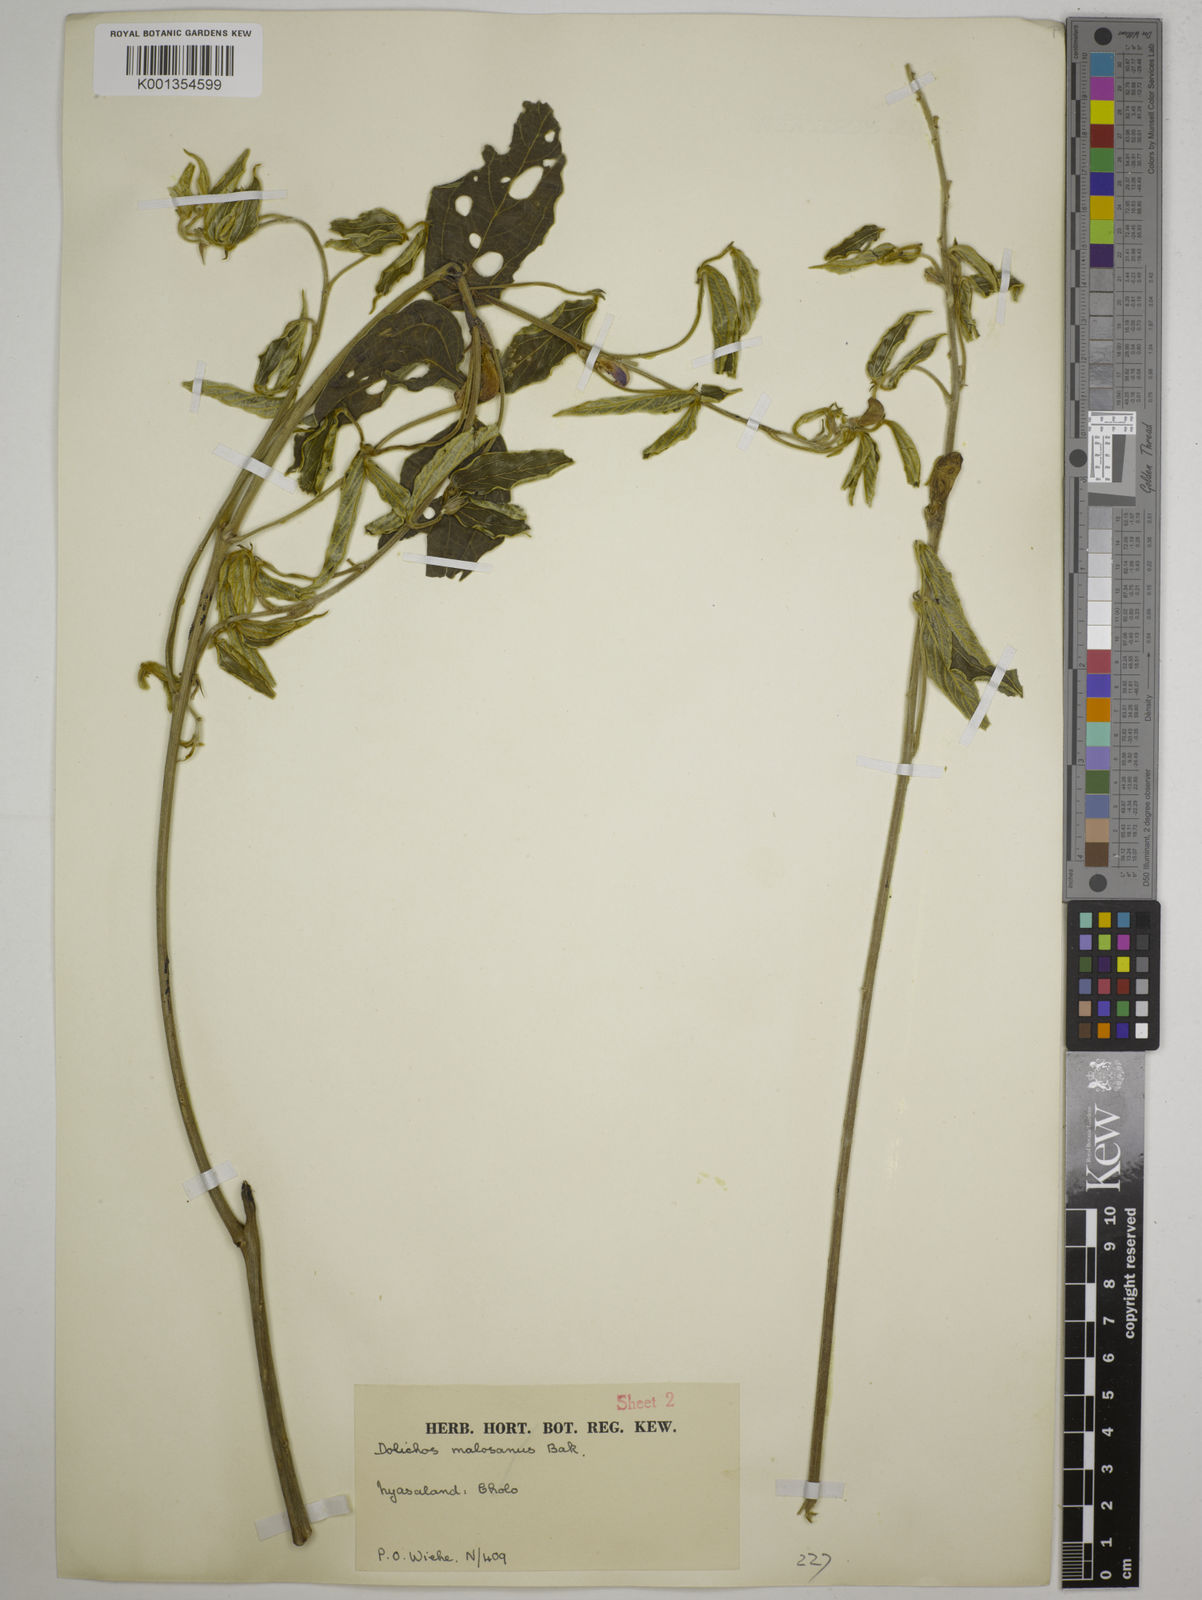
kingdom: Plantae
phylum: Tracheophyta
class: Magnoliopsida
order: Fabales
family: Fabaceae
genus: Dolichos
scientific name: Dolichos kilimandscharicus
